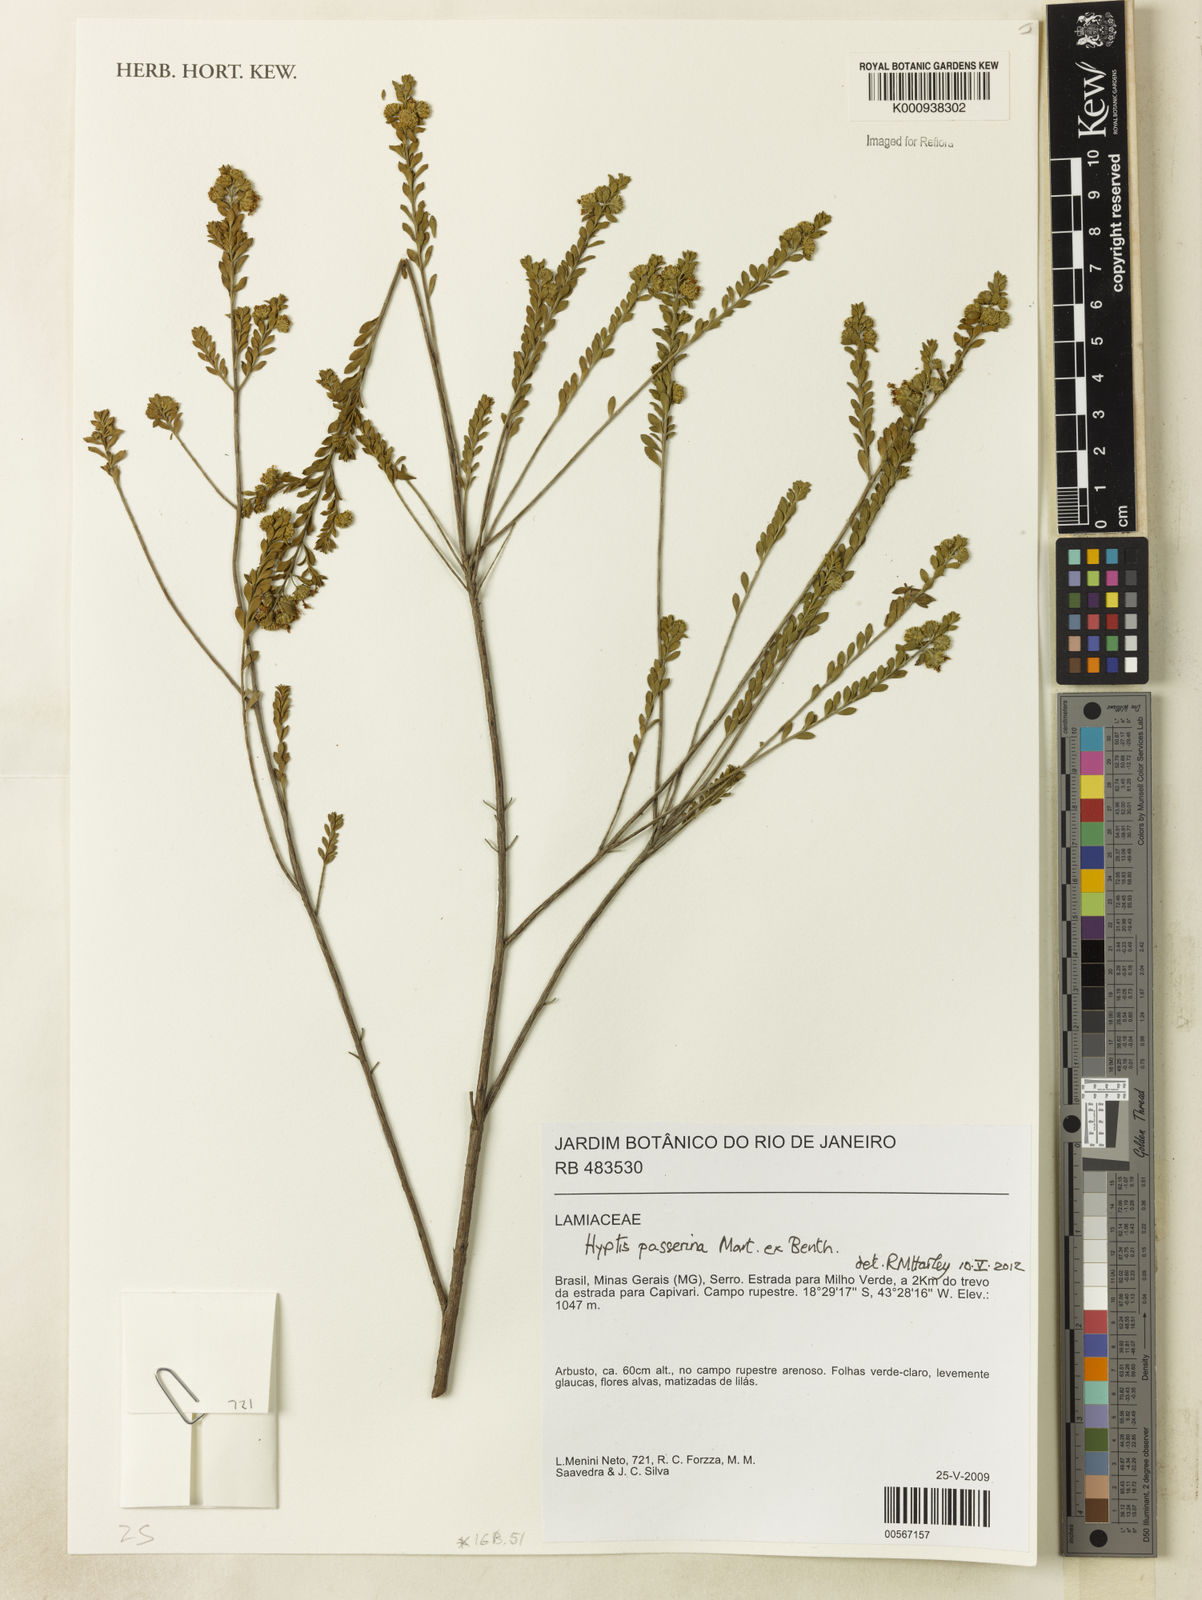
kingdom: Plantae
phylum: Tracheophyta
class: Magnoliopsida
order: Lamiales
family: Lamiaceae
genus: Hyptis
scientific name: Hyptis passerina
